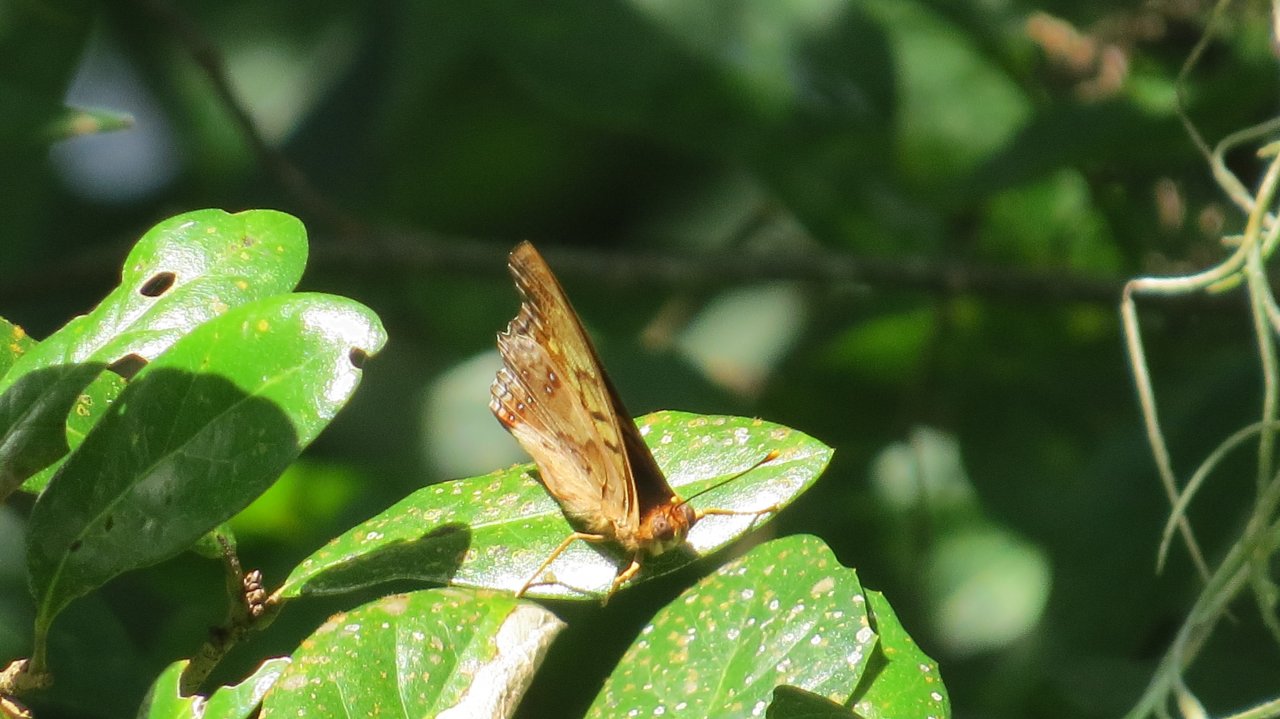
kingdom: Animalia
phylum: Arthropoda
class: Insecta
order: Lepidoptera
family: Nymphalidae
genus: Asterocampa
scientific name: Asterocampa clyton
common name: Tawny Emperor
